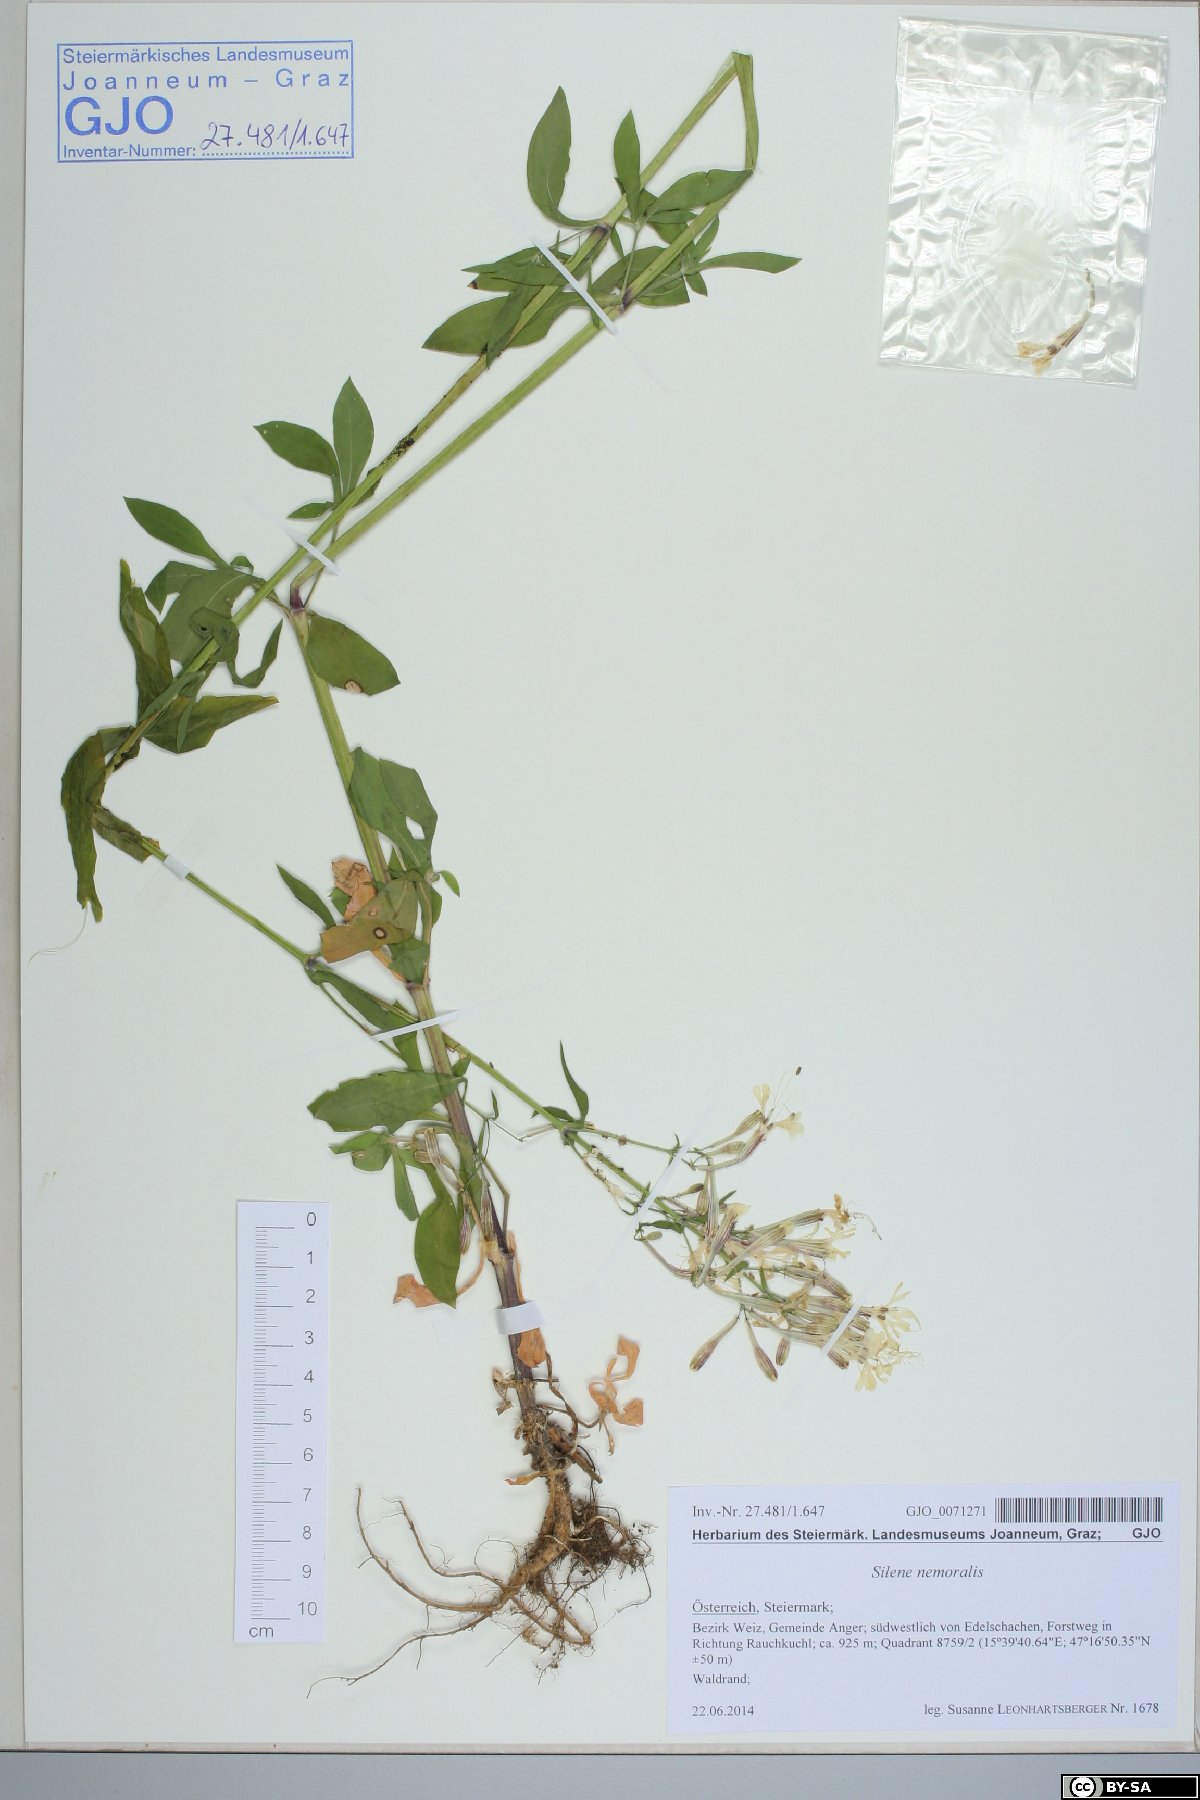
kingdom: Plantae
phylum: Tracheophyta
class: Magnoliopsida
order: Caryophyllales
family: Caryophyllaceae
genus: Silene
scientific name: Silene nemoralis
